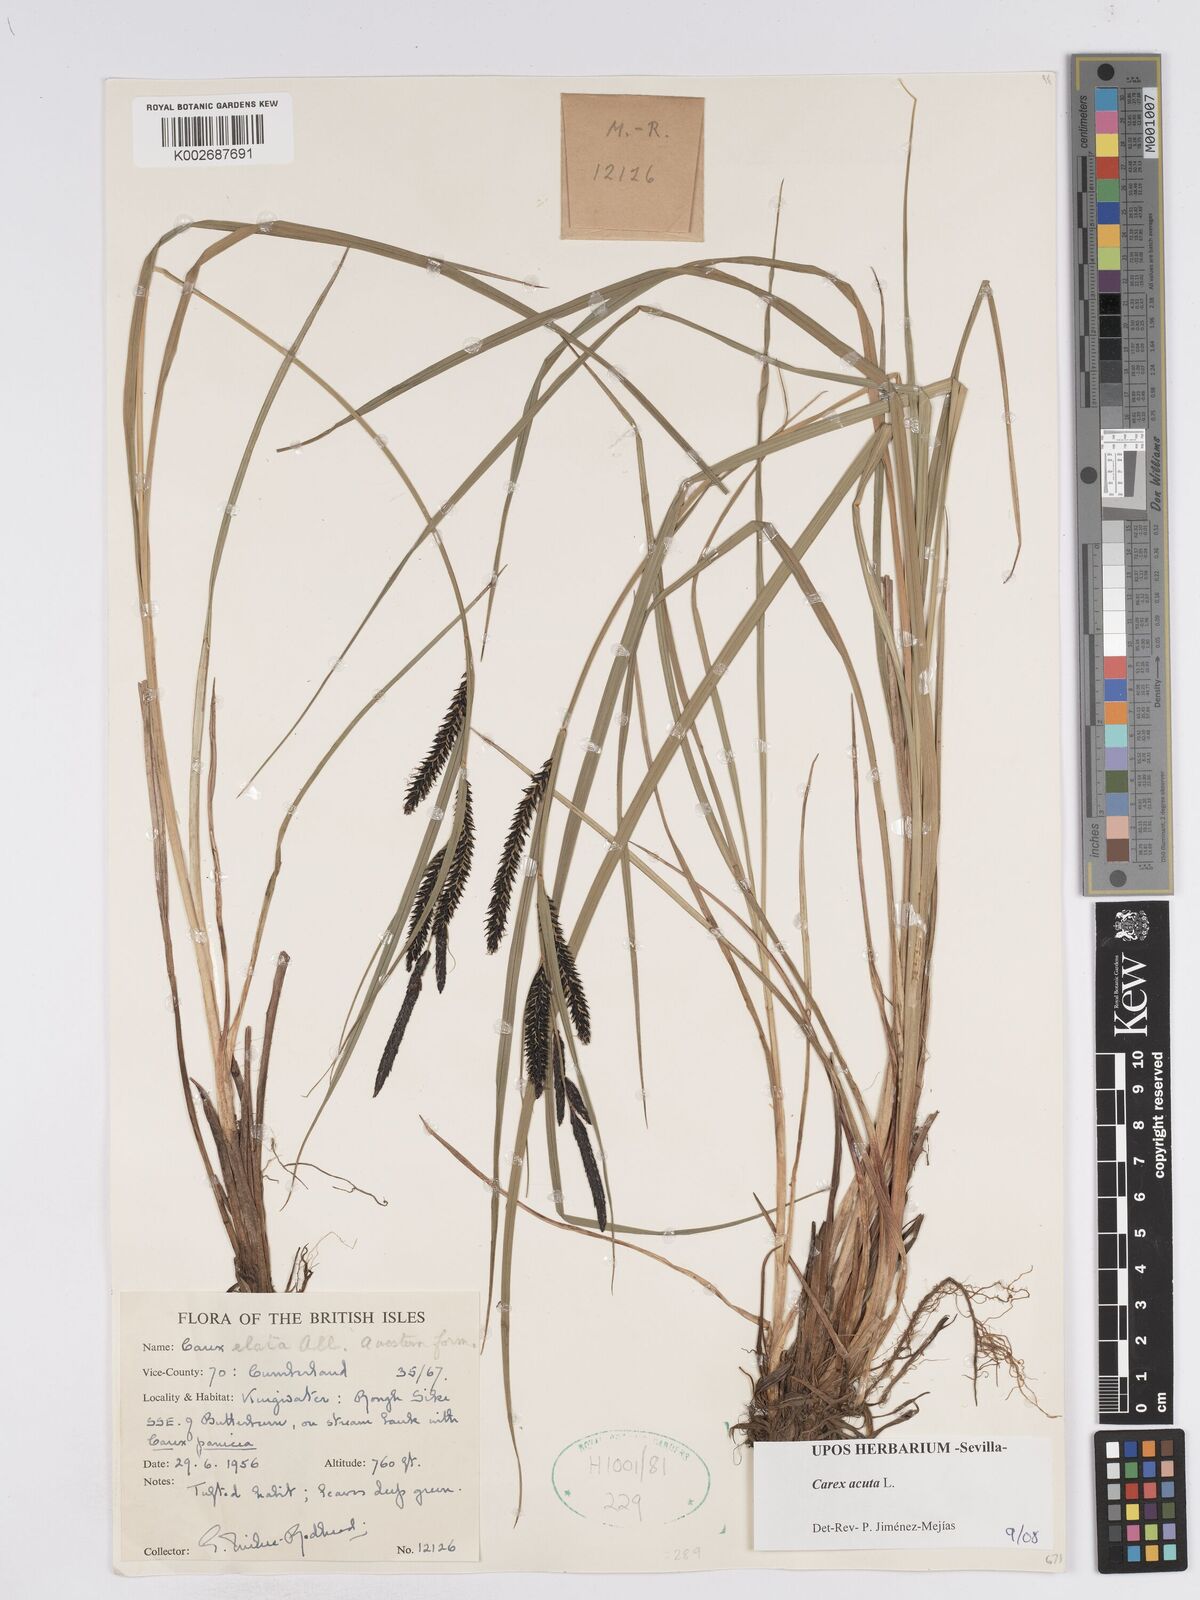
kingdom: Plantae
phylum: Tracheophyta
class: Liliopsida
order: Poales
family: Cyperaceae
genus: Carex
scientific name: Carex acuta
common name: Slender tufted-sedge
